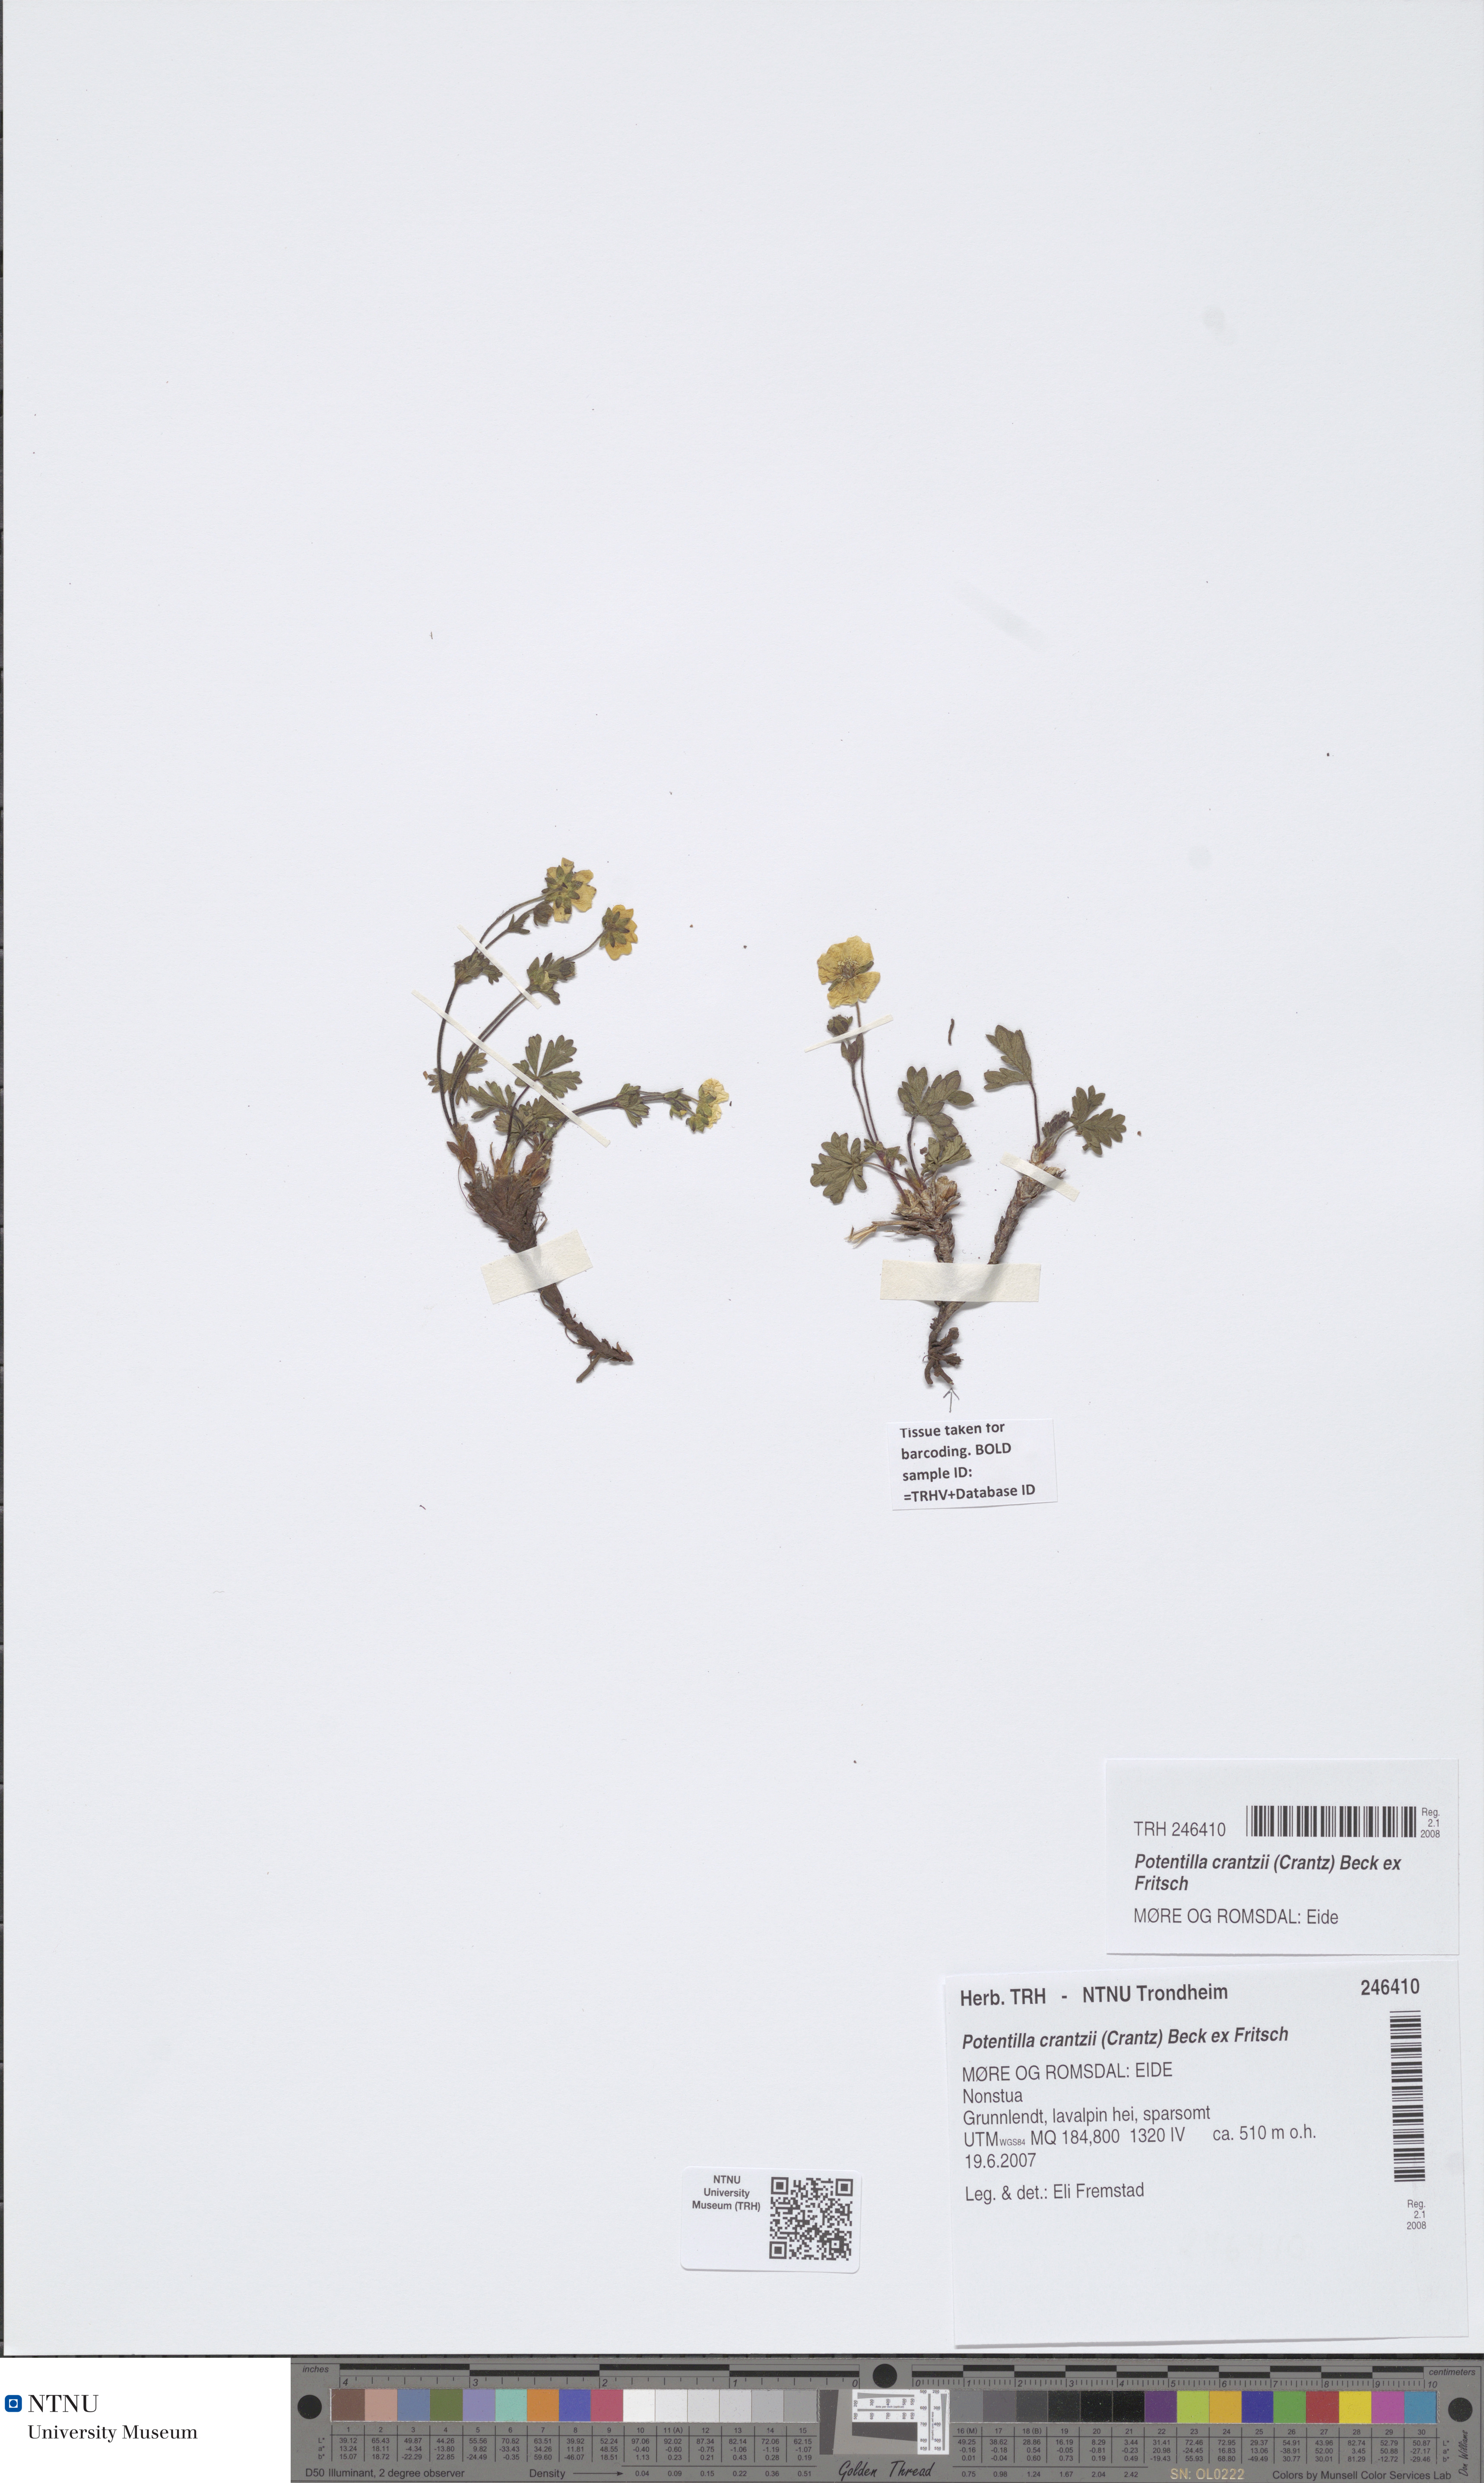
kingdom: Plantae
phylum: Tracheophyta
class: Magnoliopsida
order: Rosales
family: Rosaceae
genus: Potentilla
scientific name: Potentilla crantzii
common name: Alpine cinquefoil
